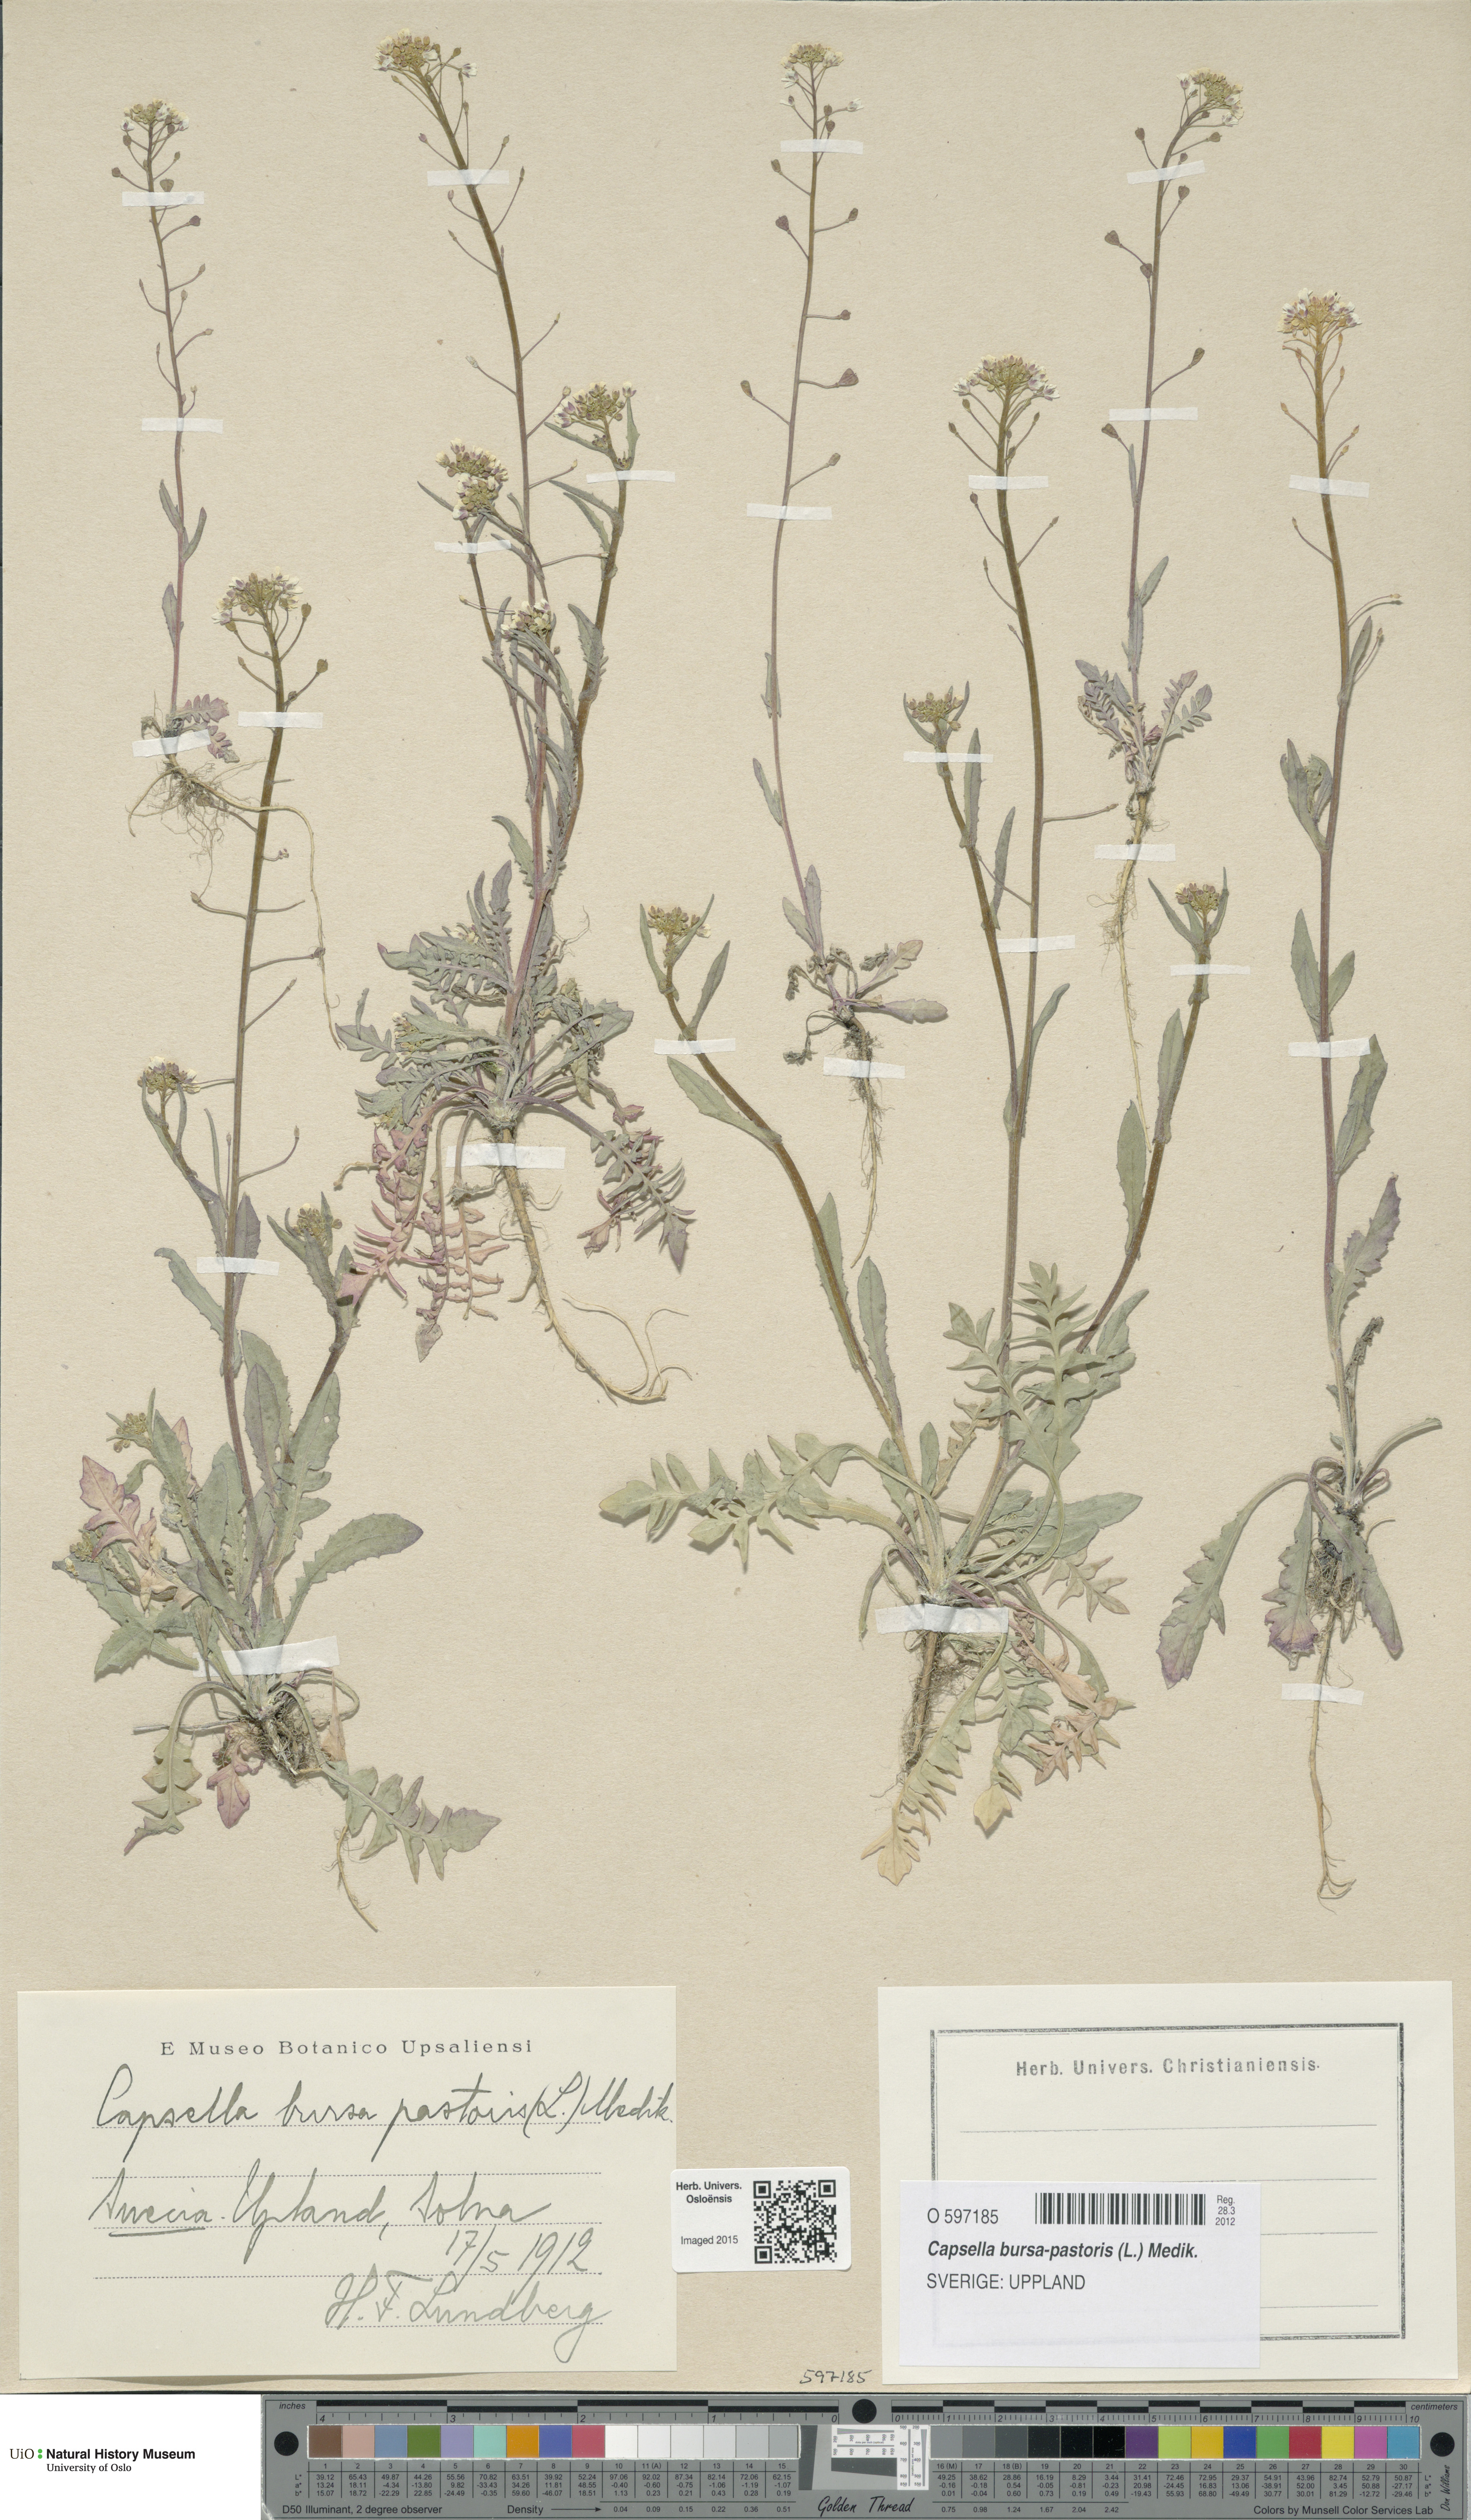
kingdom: Plantae
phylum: Tracheophyta
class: Magnoliopsida
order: Brassicales
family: Brassicaceae
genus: Capsella
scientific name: Capsella bursa-pastoris
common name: Shepherd's purse
